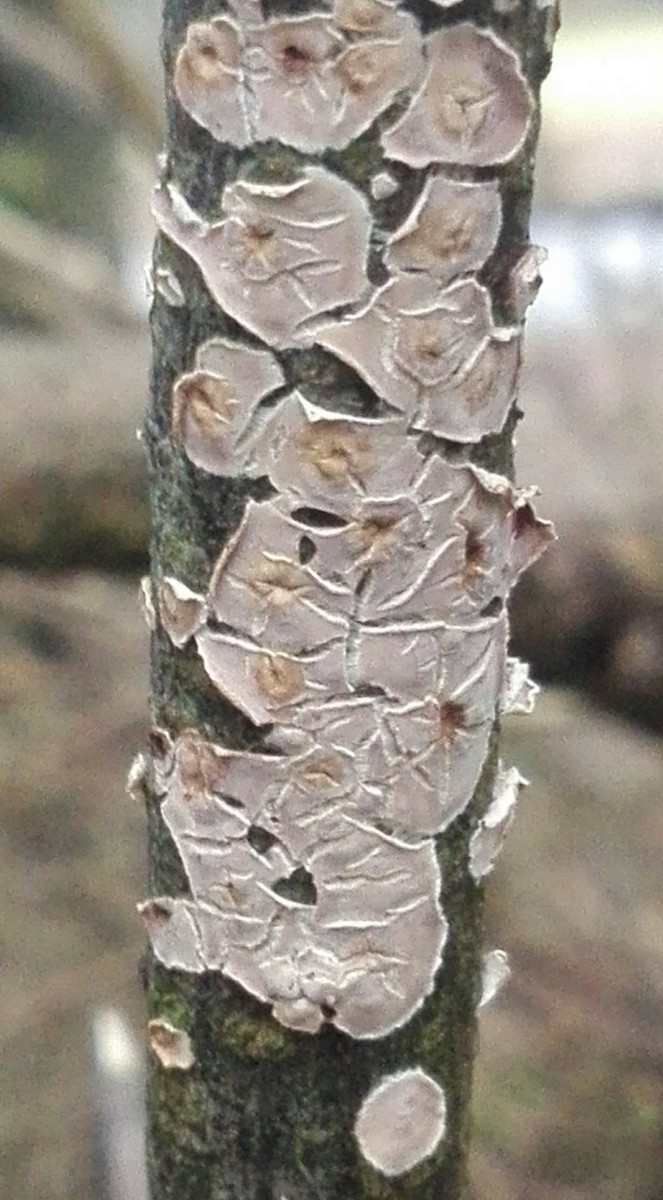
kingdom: Fungi
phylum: Basidiomycota
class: Agaricomycetes
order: Agaricales
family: Physalacriaceae
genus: Cylindrobasidium
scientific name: Cylindrobasidium evolvens
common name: sprækkehinde
